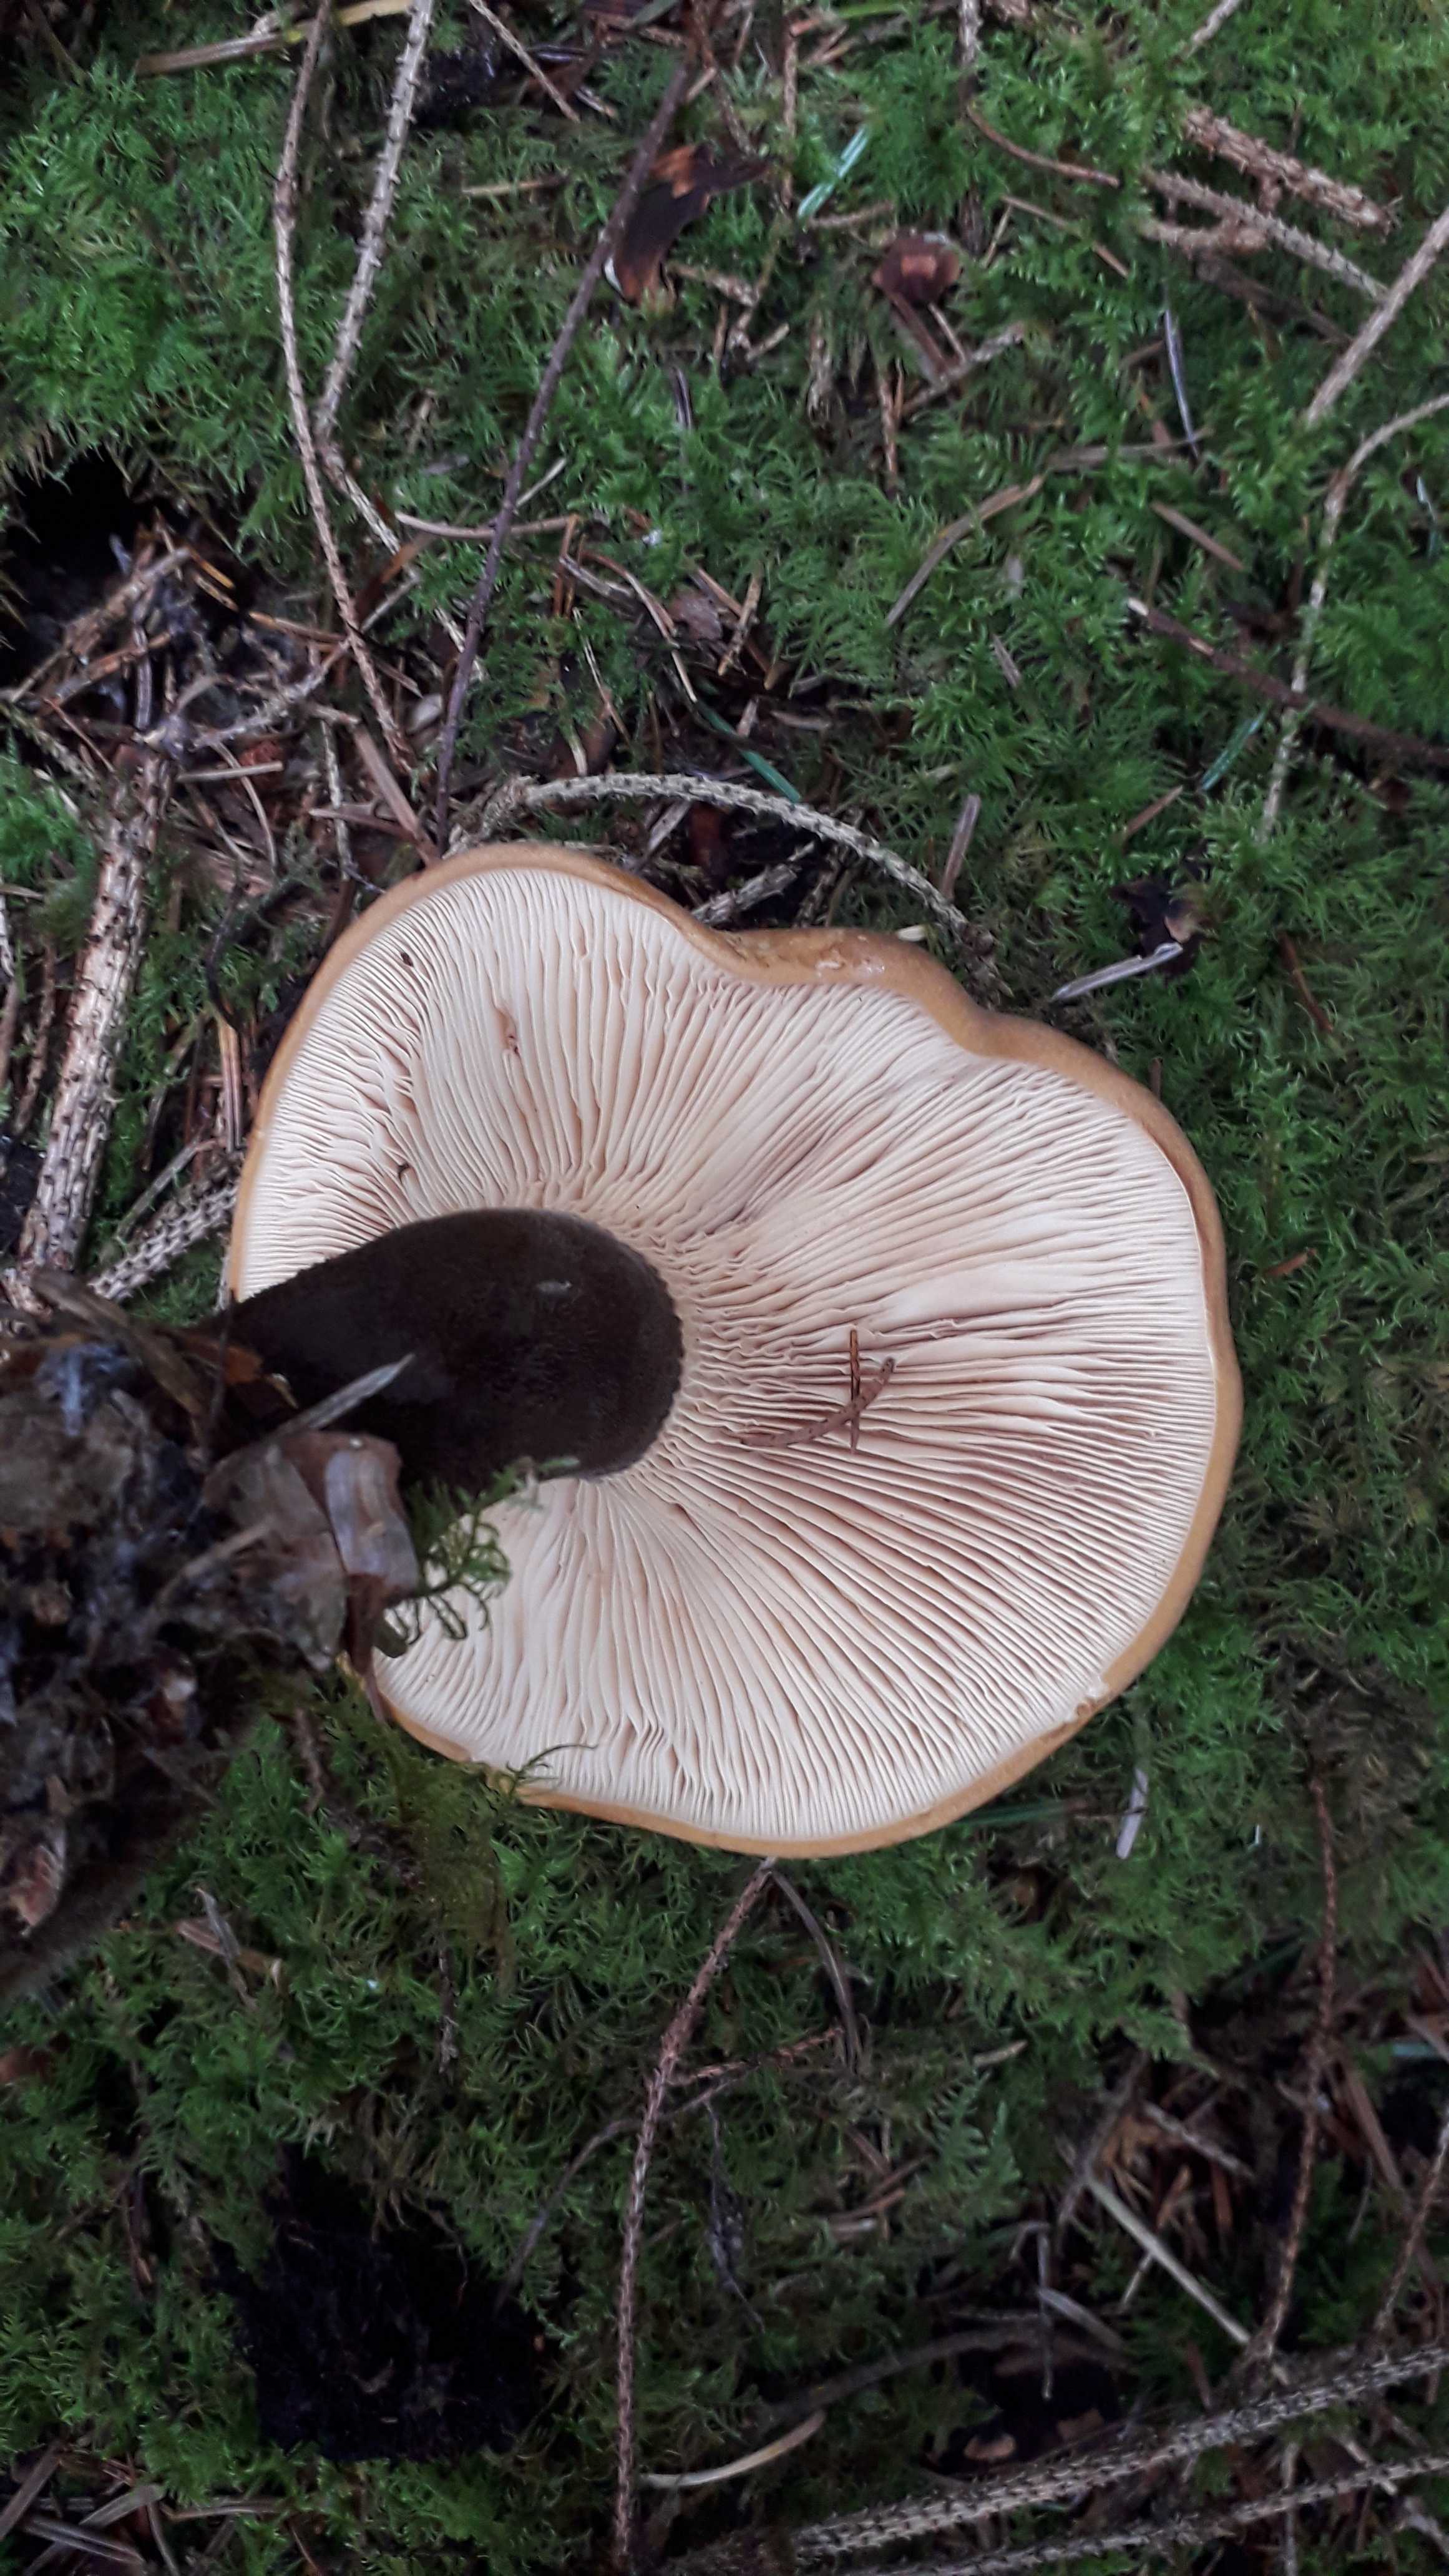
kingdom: Fungi
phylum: Basidiomycota
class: Agaricomycetes
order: Boletales
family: Tapinellaceae
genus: Tapinella
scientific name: Tapinella atrotomentosa
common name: sortfiltet viftesvamp
